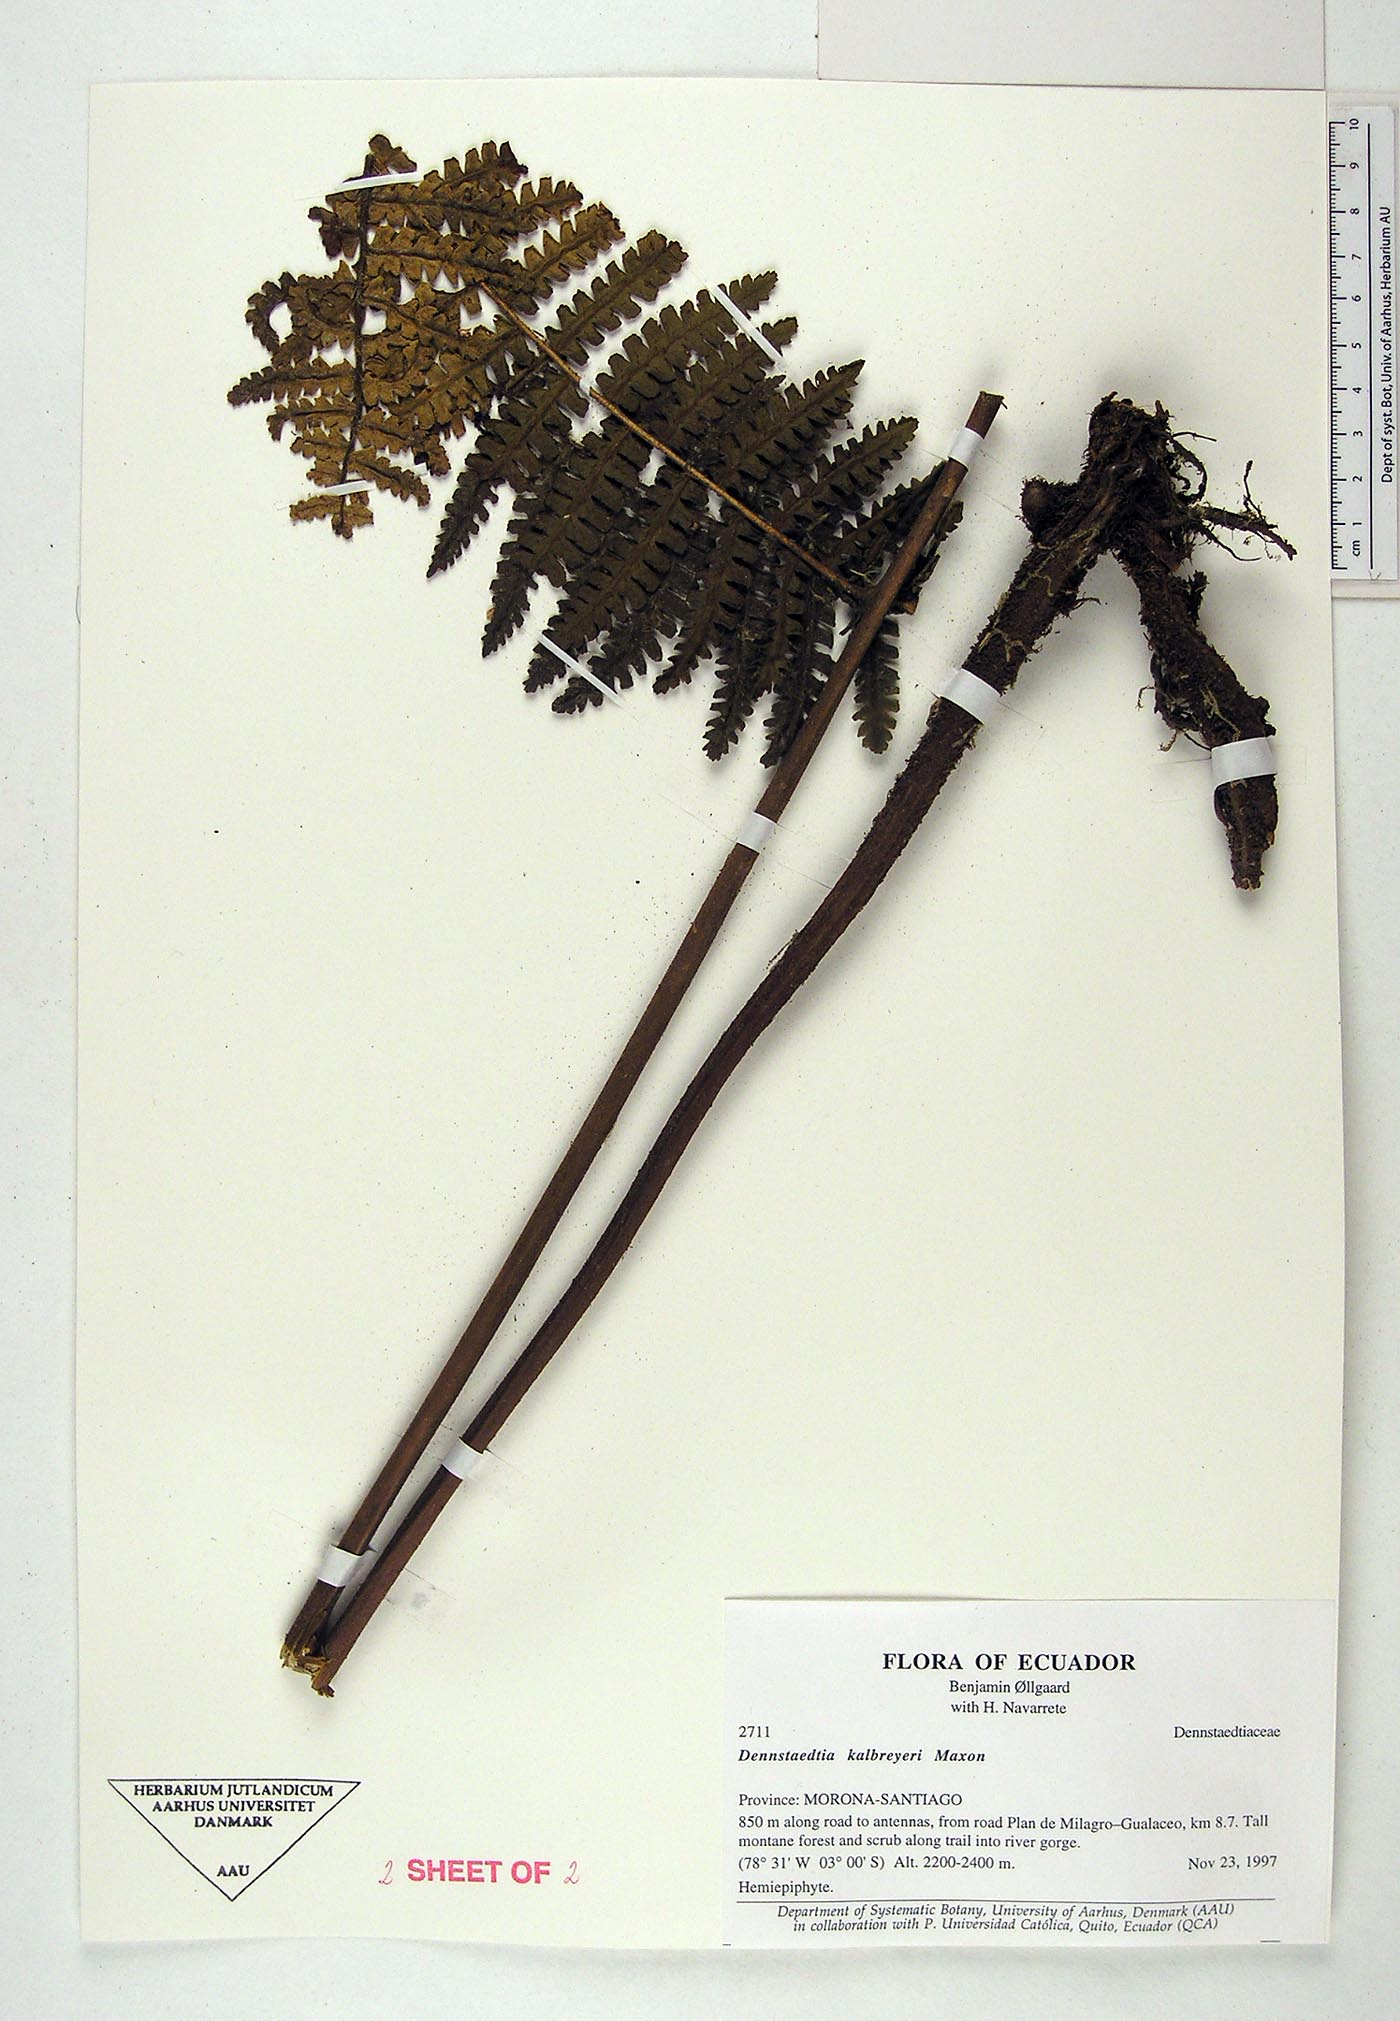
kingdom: Plantae
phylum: Tracheophyta
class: Polypodiopsida
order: Polypodiales
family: Dennstaedtiaceae
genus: Dennstaedtia
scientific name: Dennstaedtia obtusifolia
